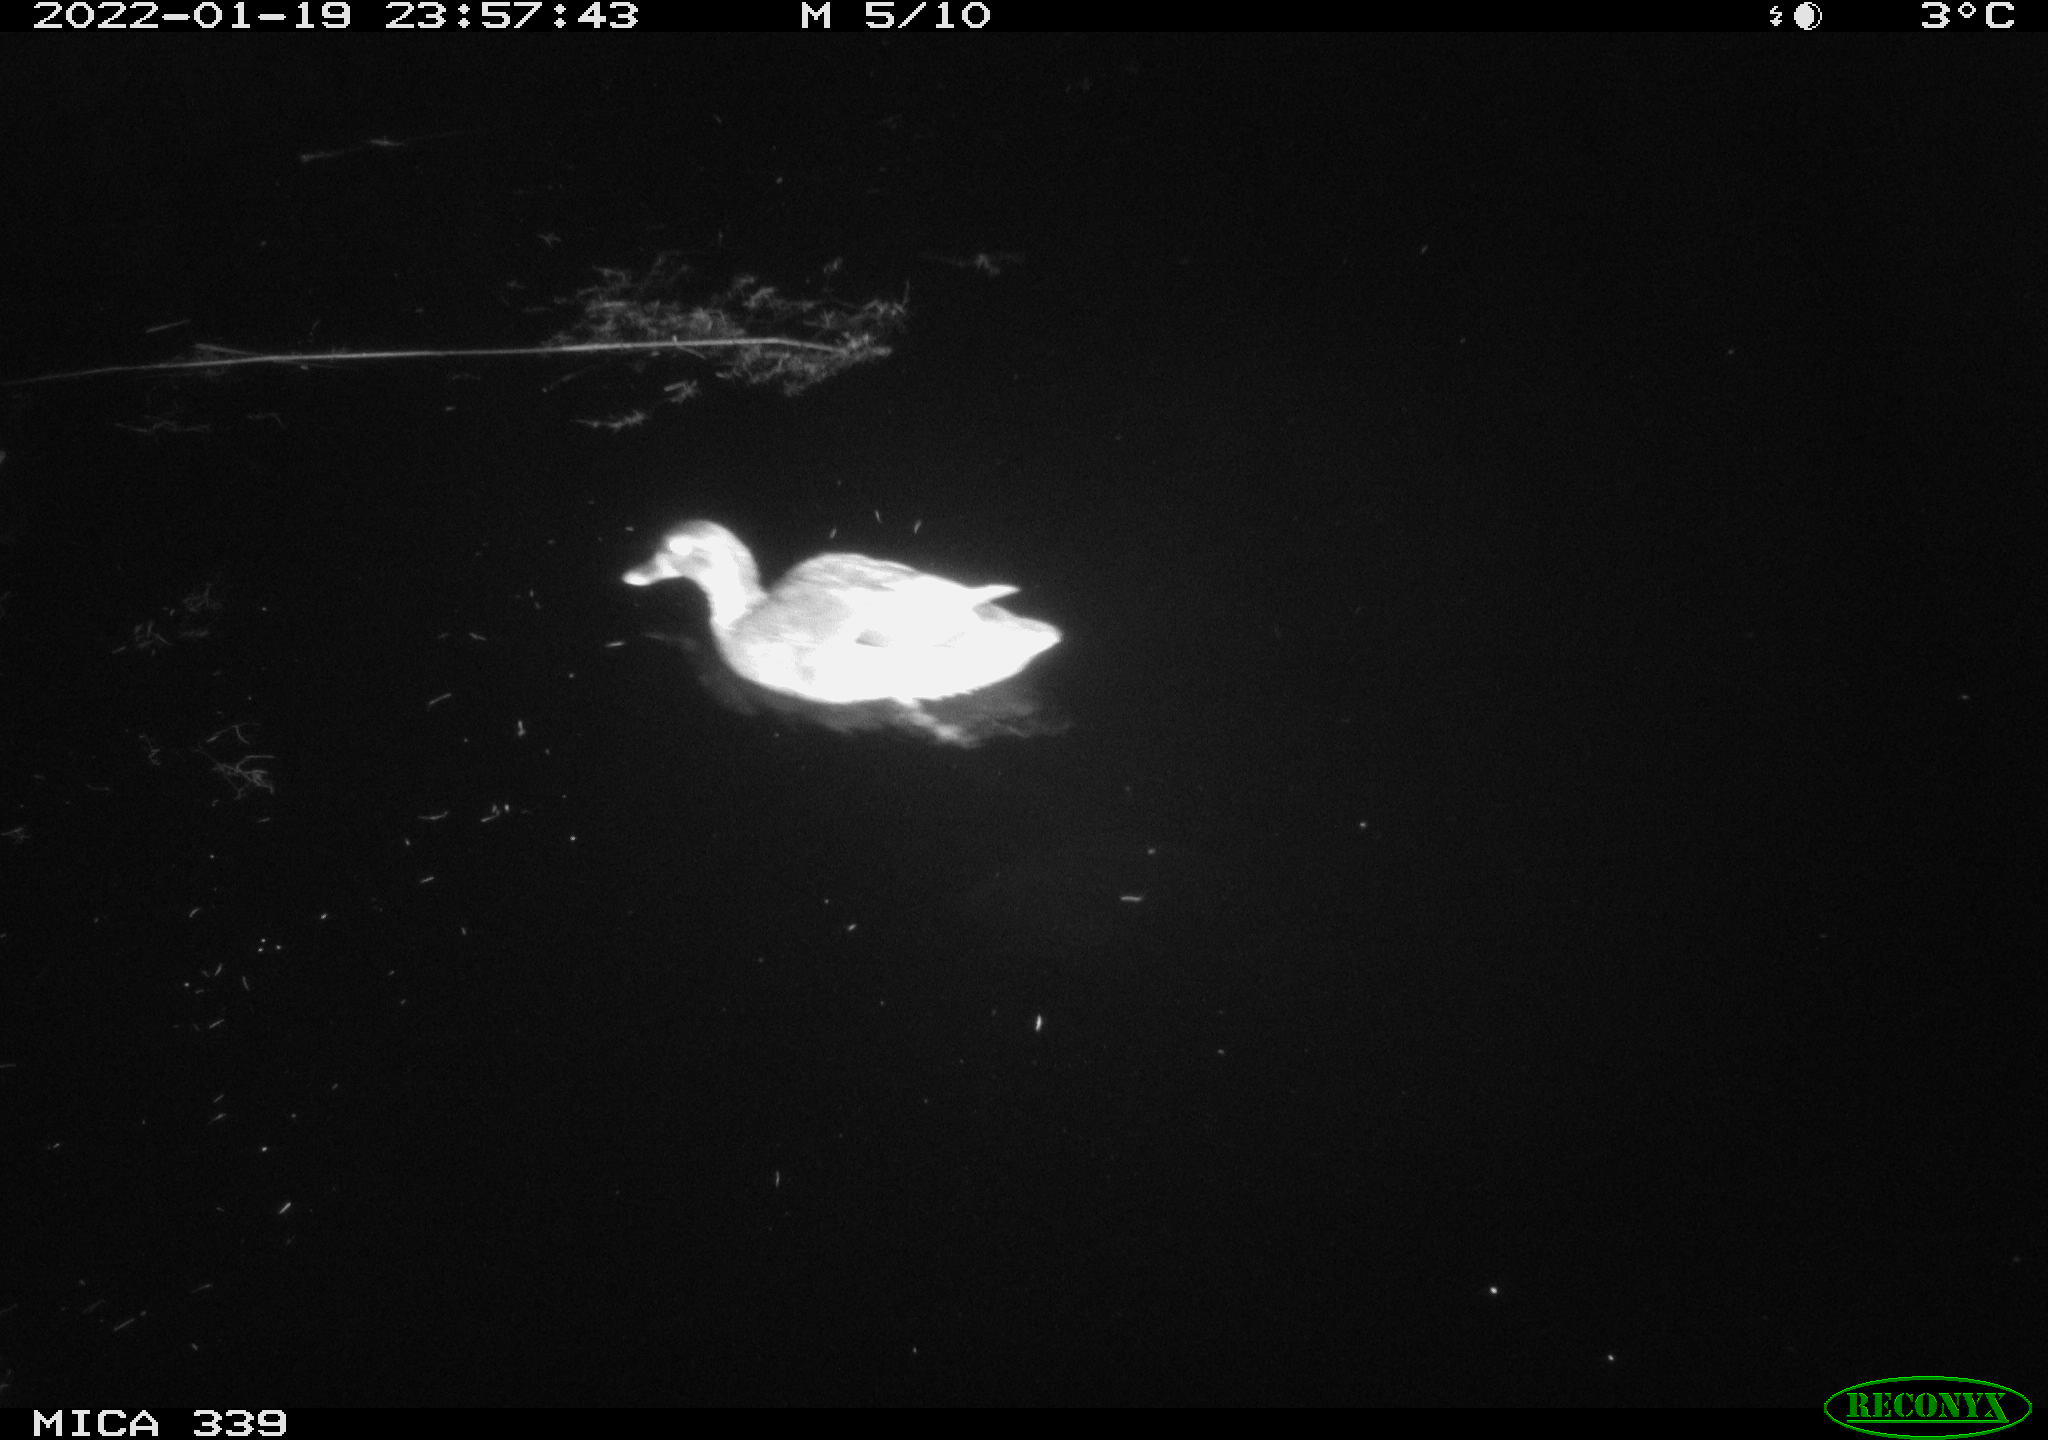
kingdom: Animalia
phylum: Chordata
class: Aves
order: Anseriformes
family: Anatidae
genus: Anas
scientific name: Anas platyrhynchos
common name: Mallard
